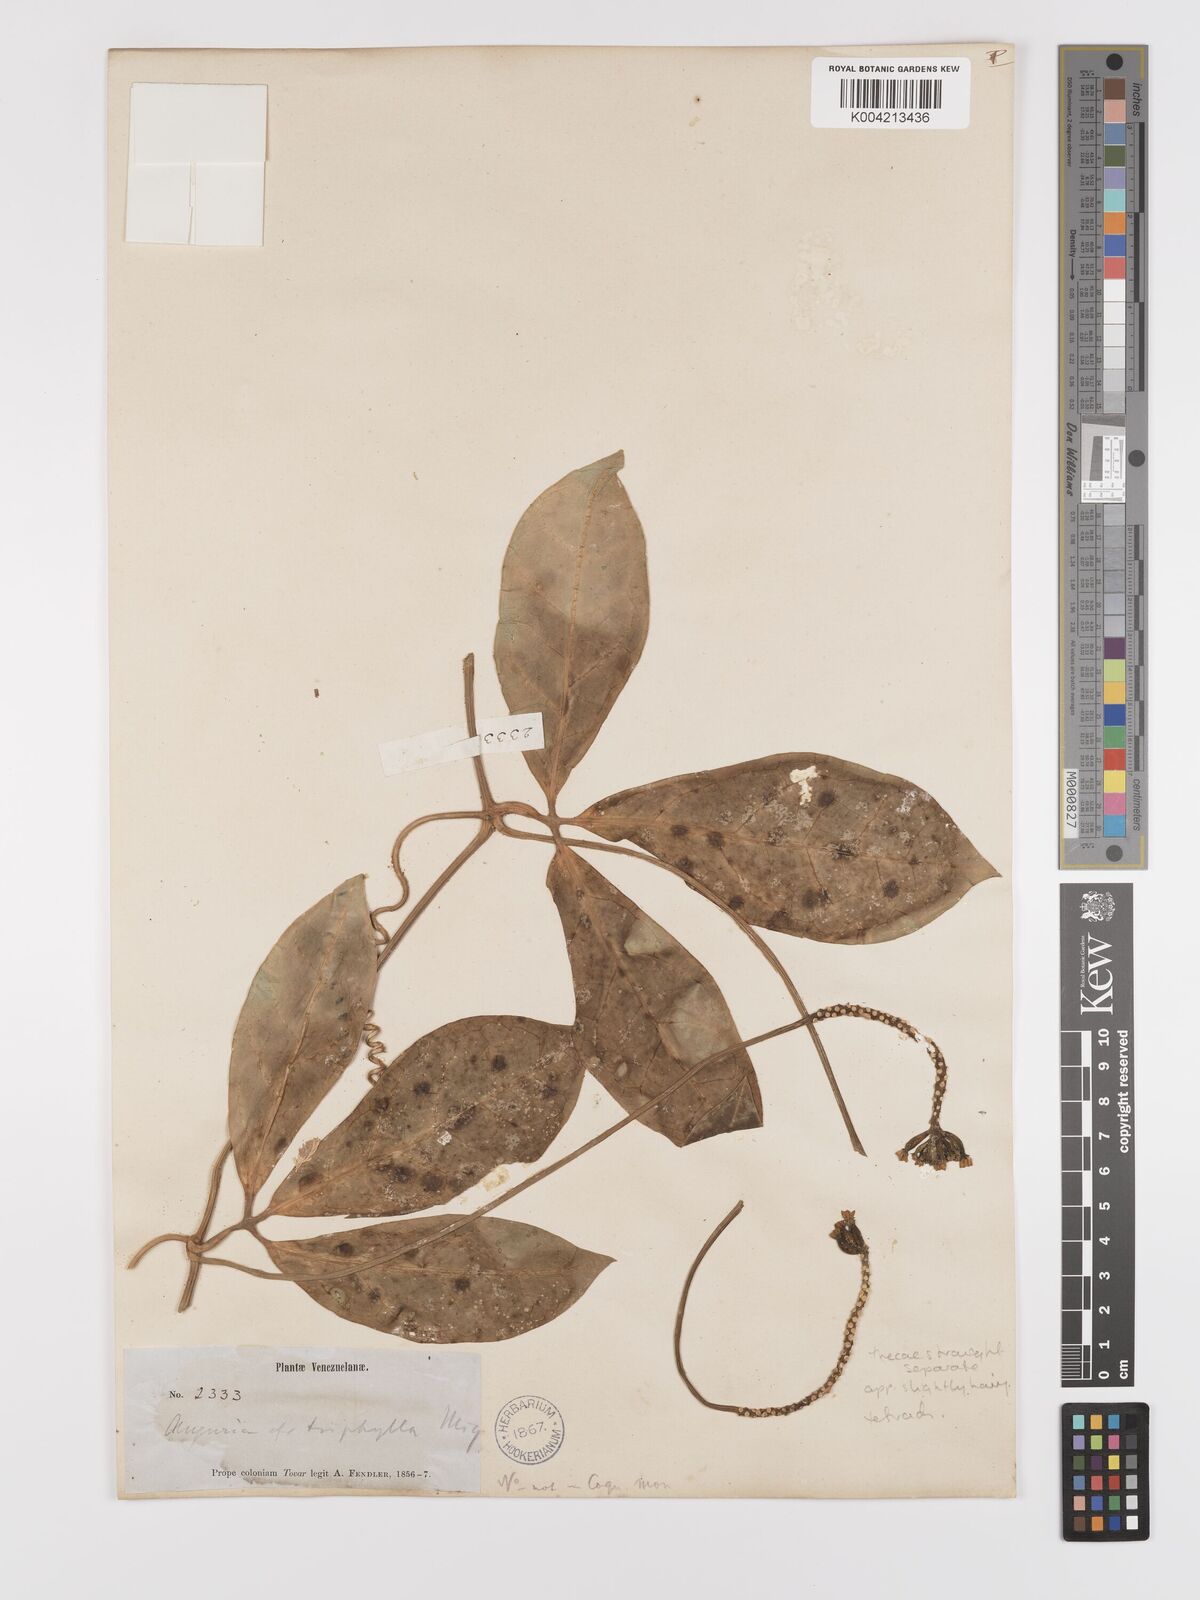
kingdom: Plantae
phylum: Tracheophyta
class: Magnoliopsida
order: Cucurbitales
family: Cucurbitaceae
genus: Psiguria
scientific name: Psiguria triphylla
